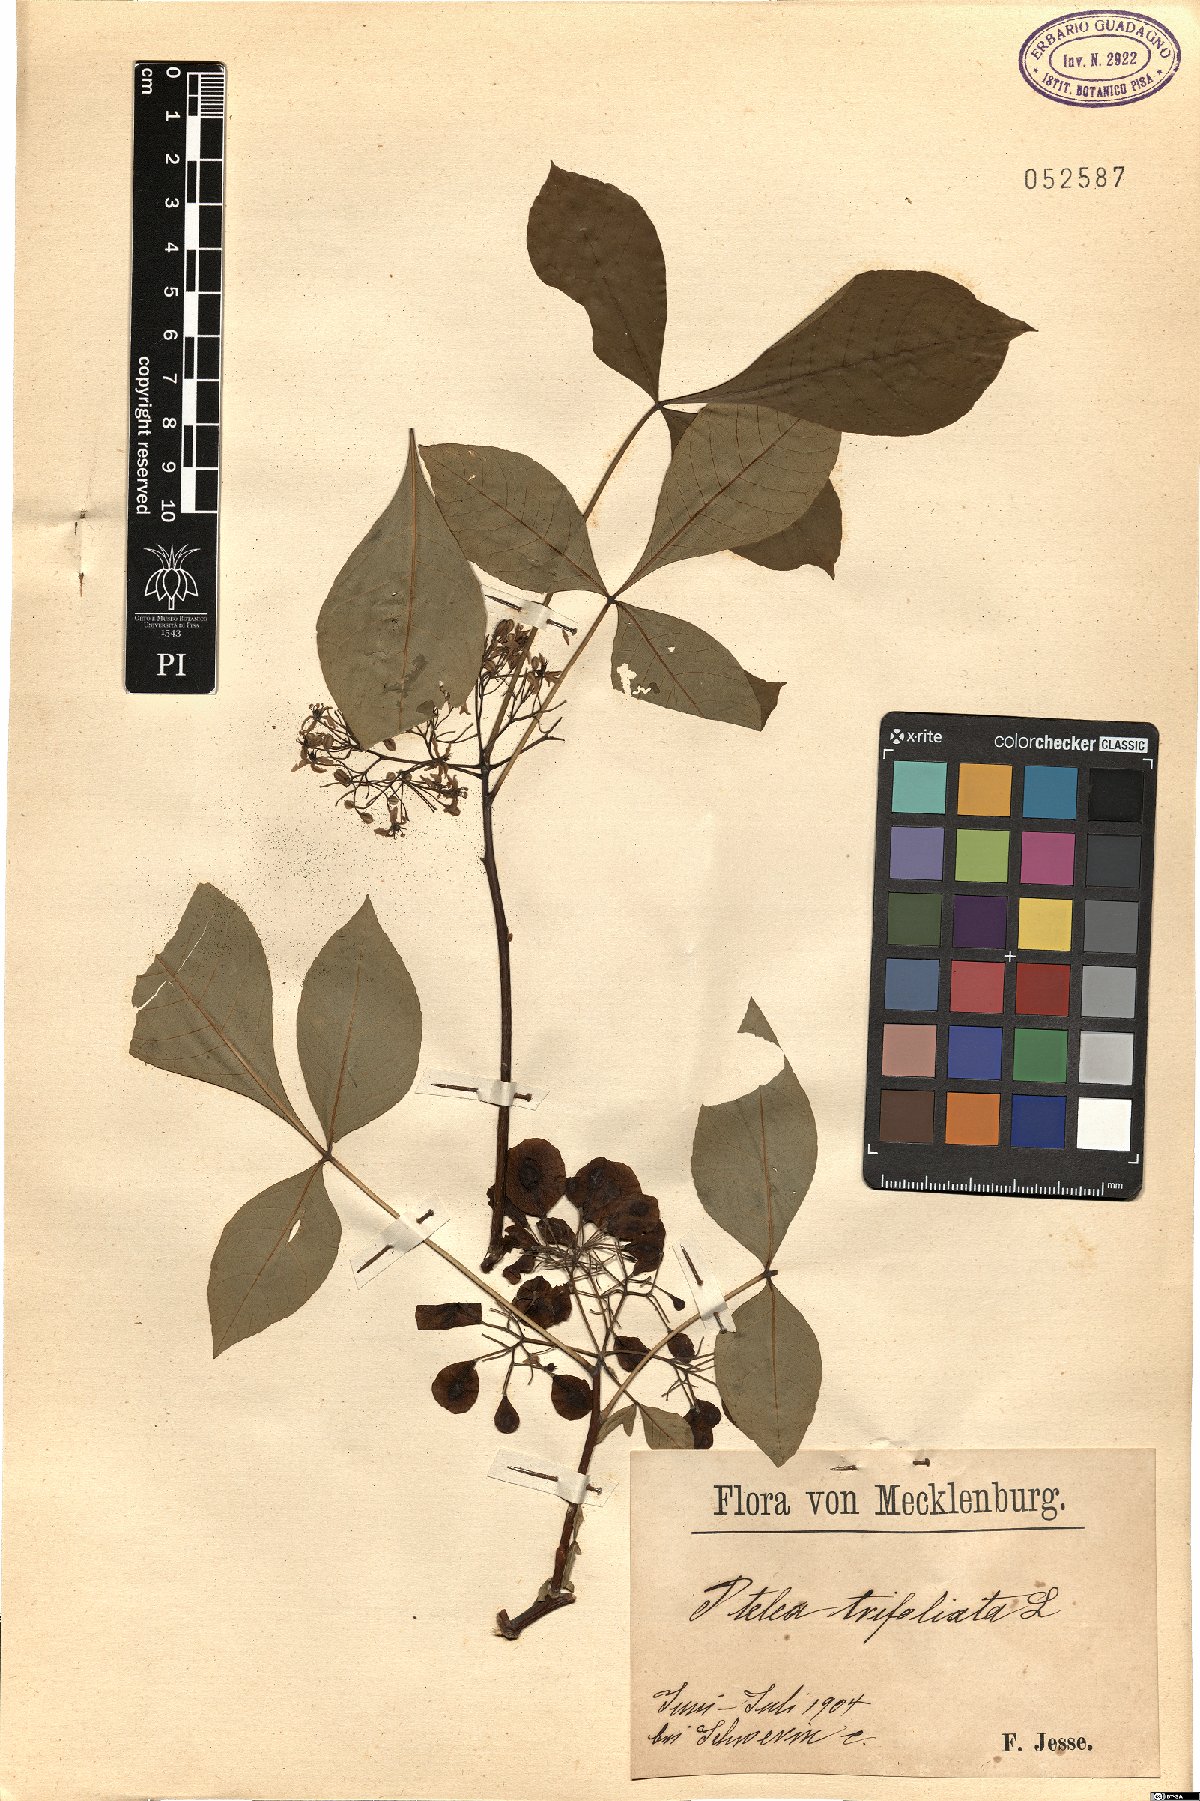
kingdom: Plantae
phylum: Tracheophyta
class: Magnoliopsida
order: Sapindales
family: Rutaceae
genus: Ptelea
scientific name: Ptelea trifoliata
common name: Common hop-tree
